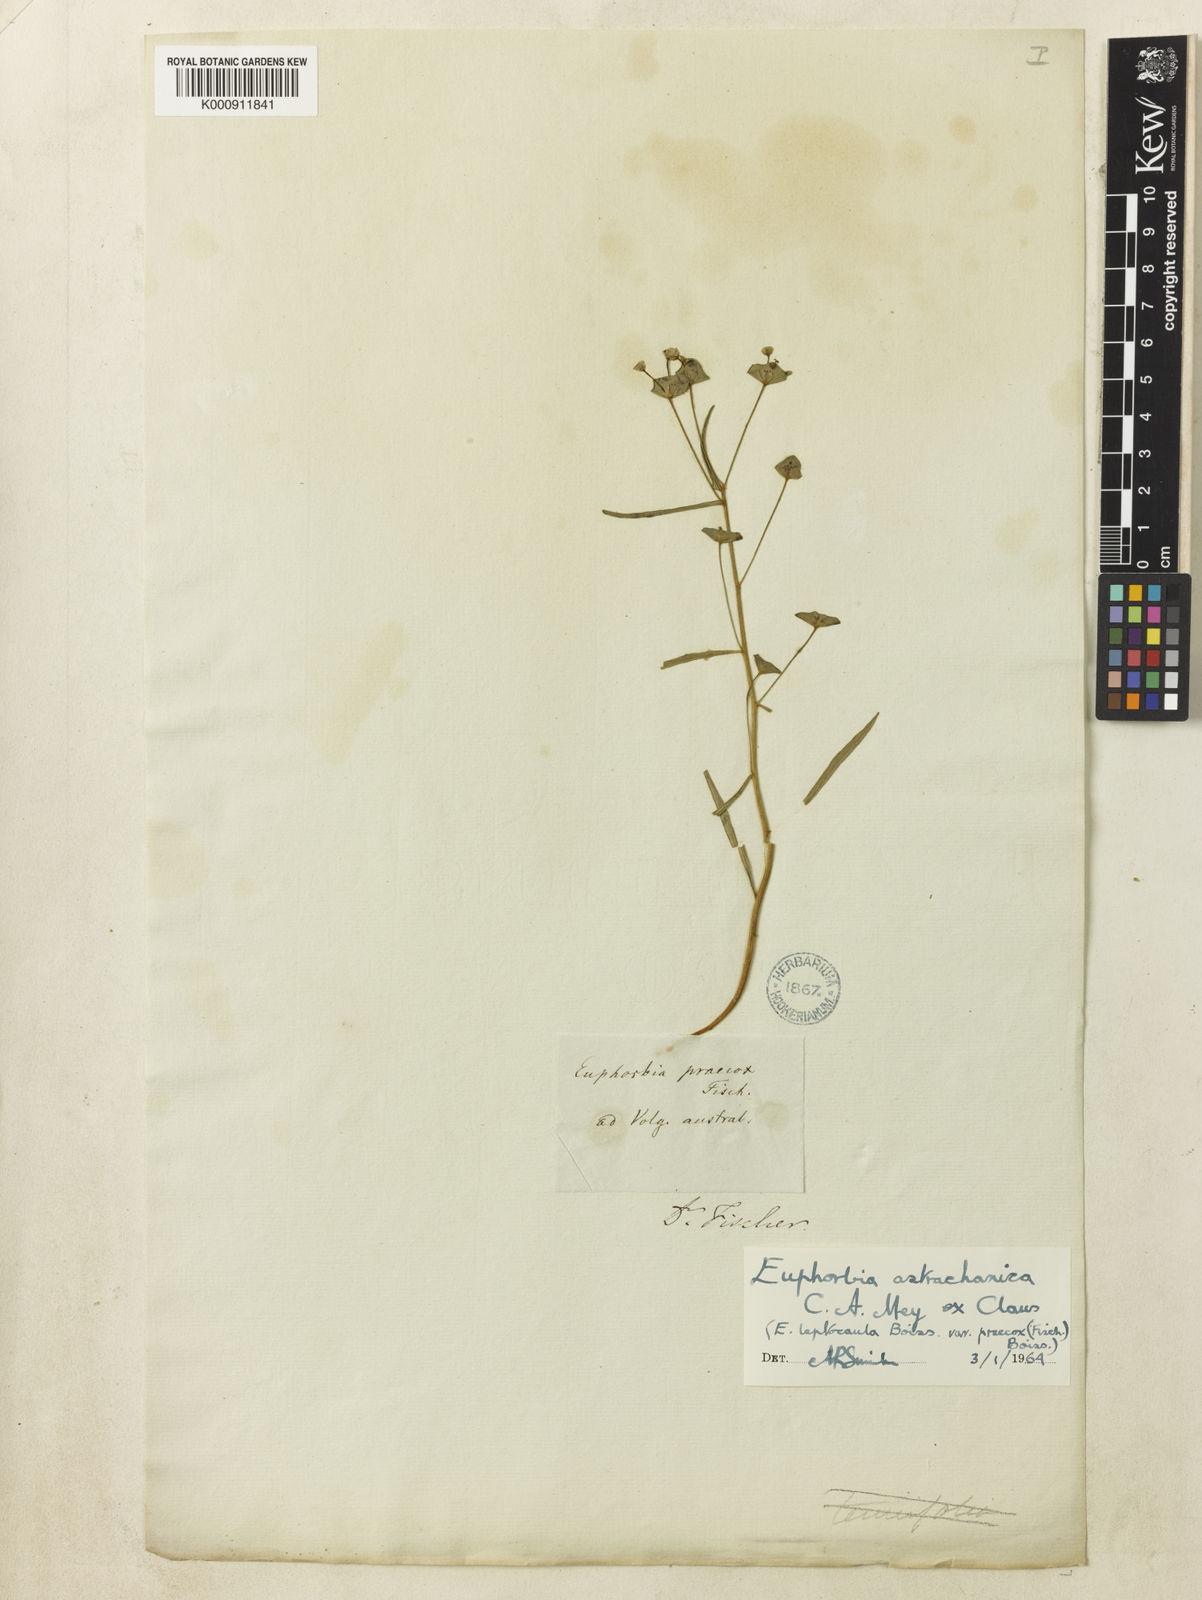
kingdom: Plantae
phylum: Tracheophyta
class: Magnoliopsida
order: Malpighiales
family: Euphorbiaceae
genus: Euphorbia
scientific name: Euphorbia
